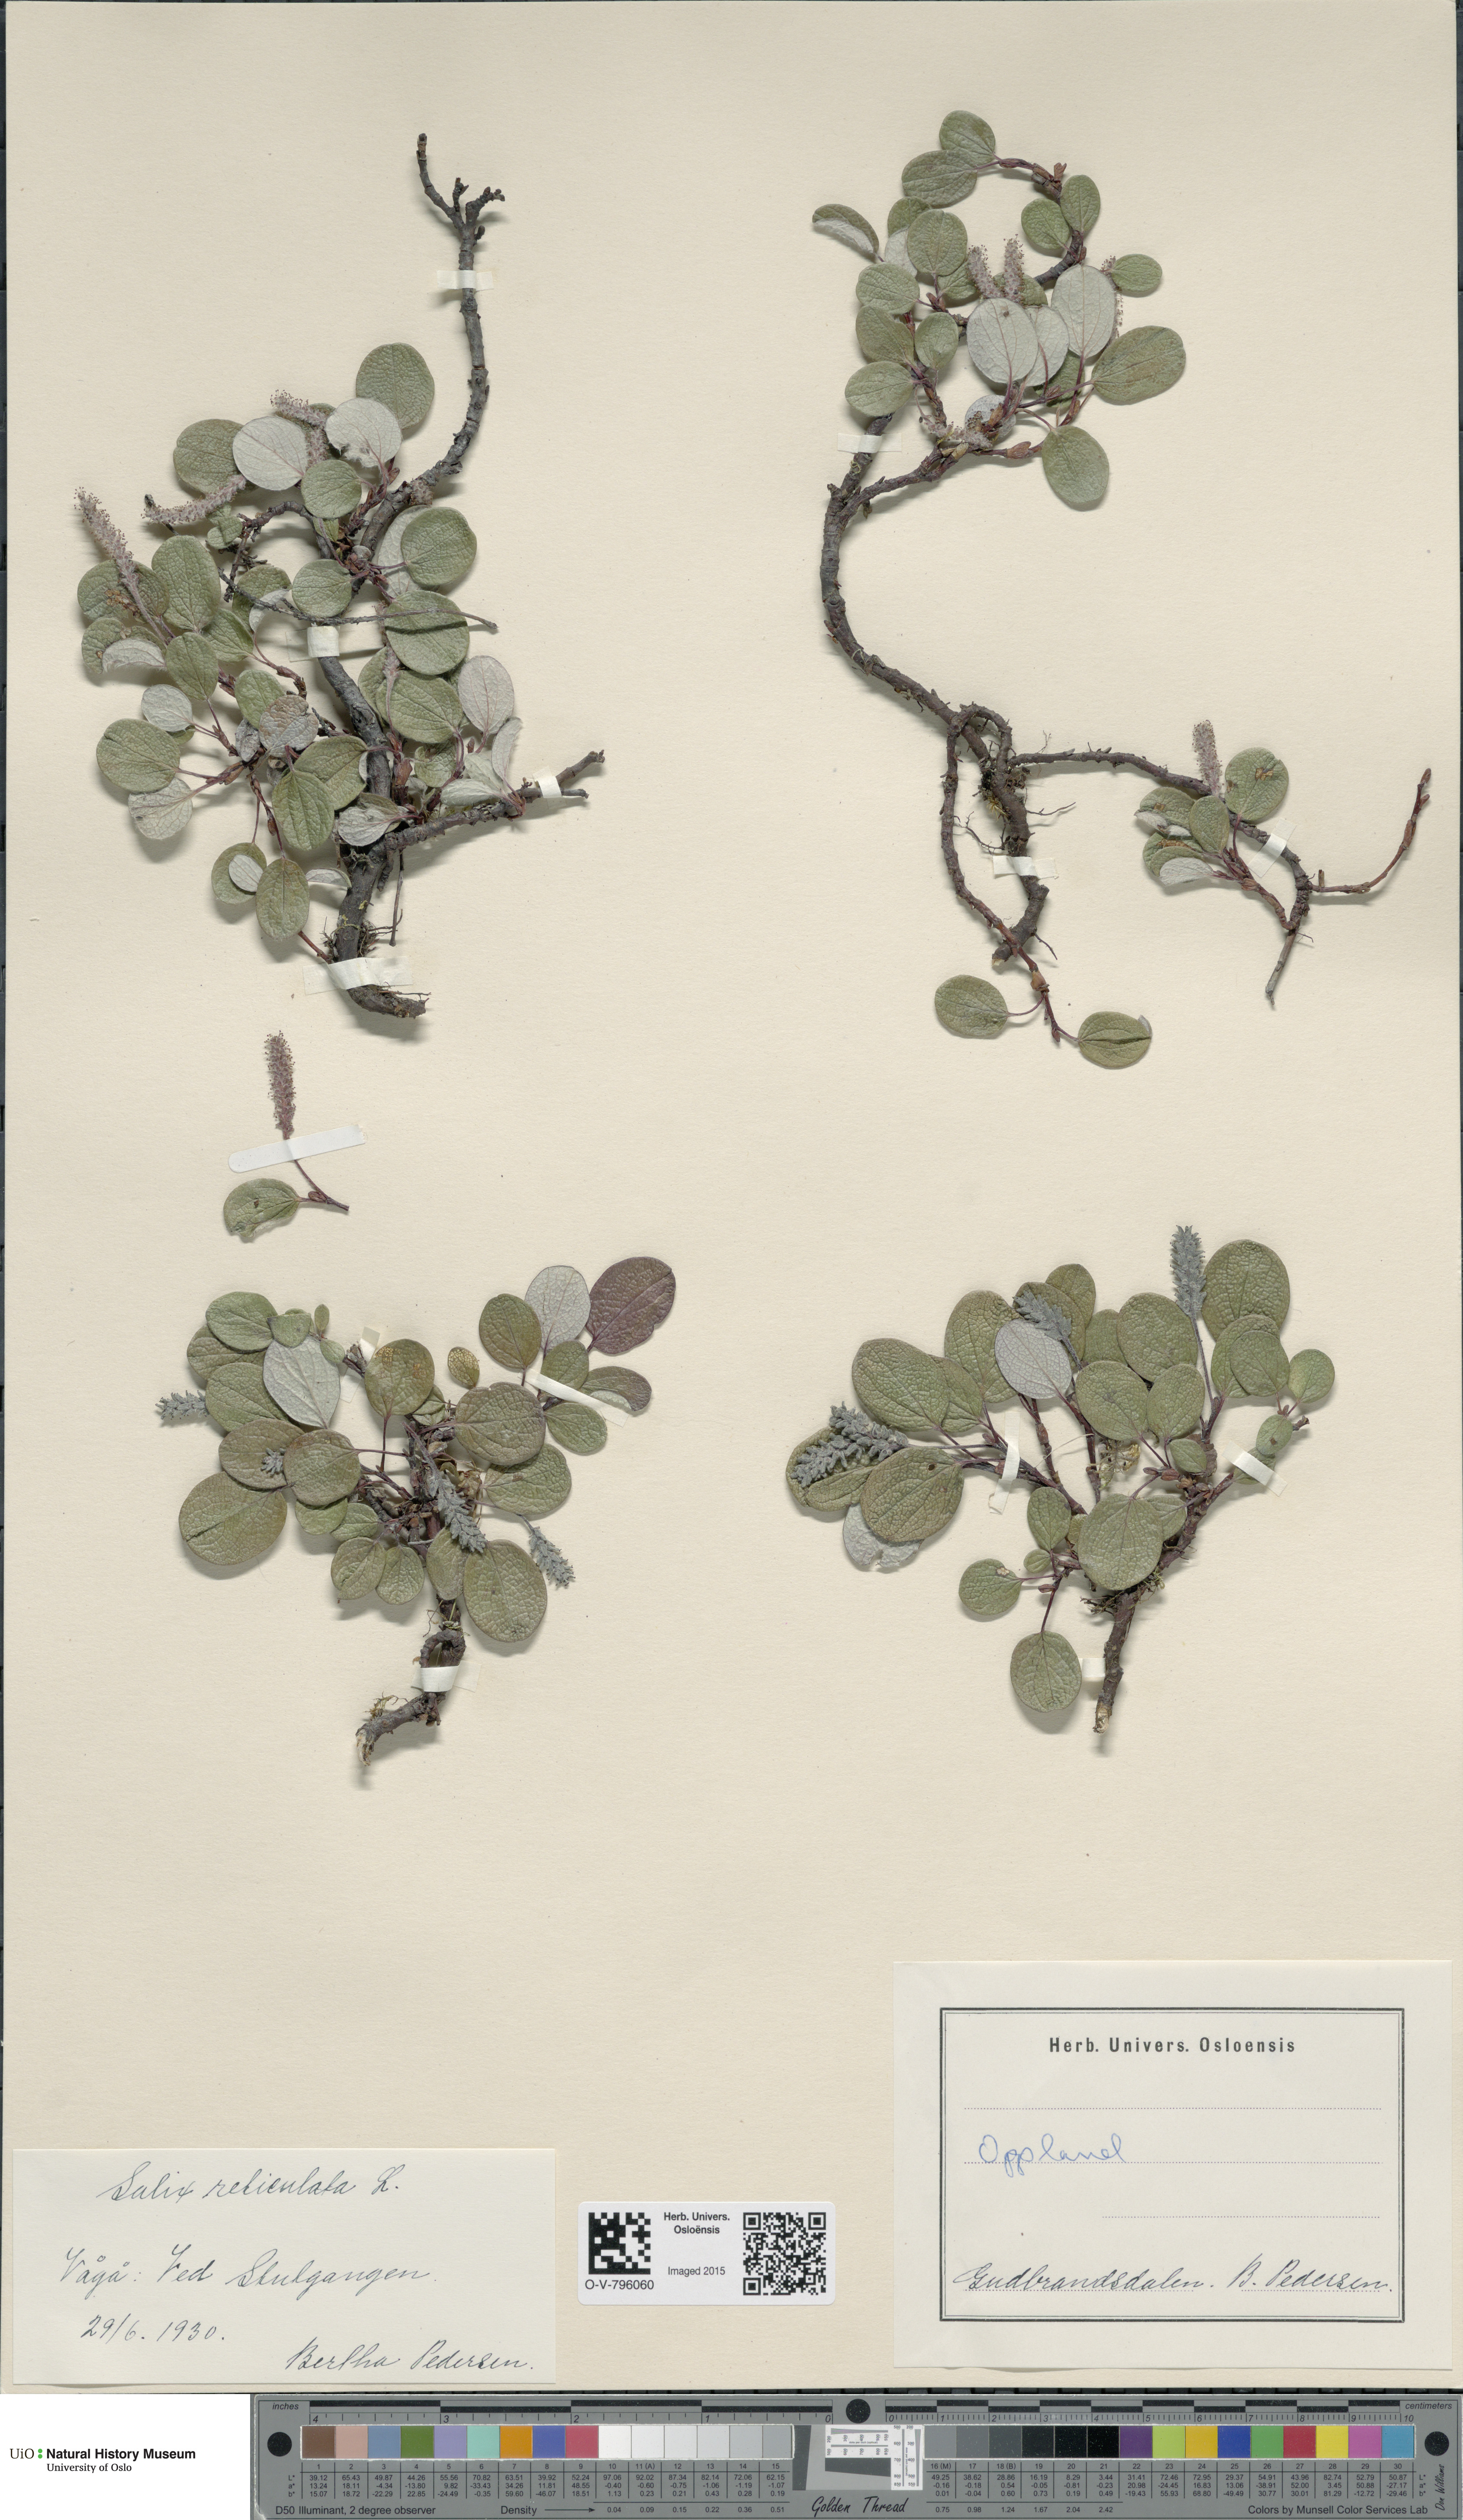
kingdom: Plantae
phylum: Tracheophyta
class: Magnoliopsida
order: Malpighiales
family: Salicaceae
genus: Salix
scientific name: Salix reticulata
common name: Net-leaved willow
